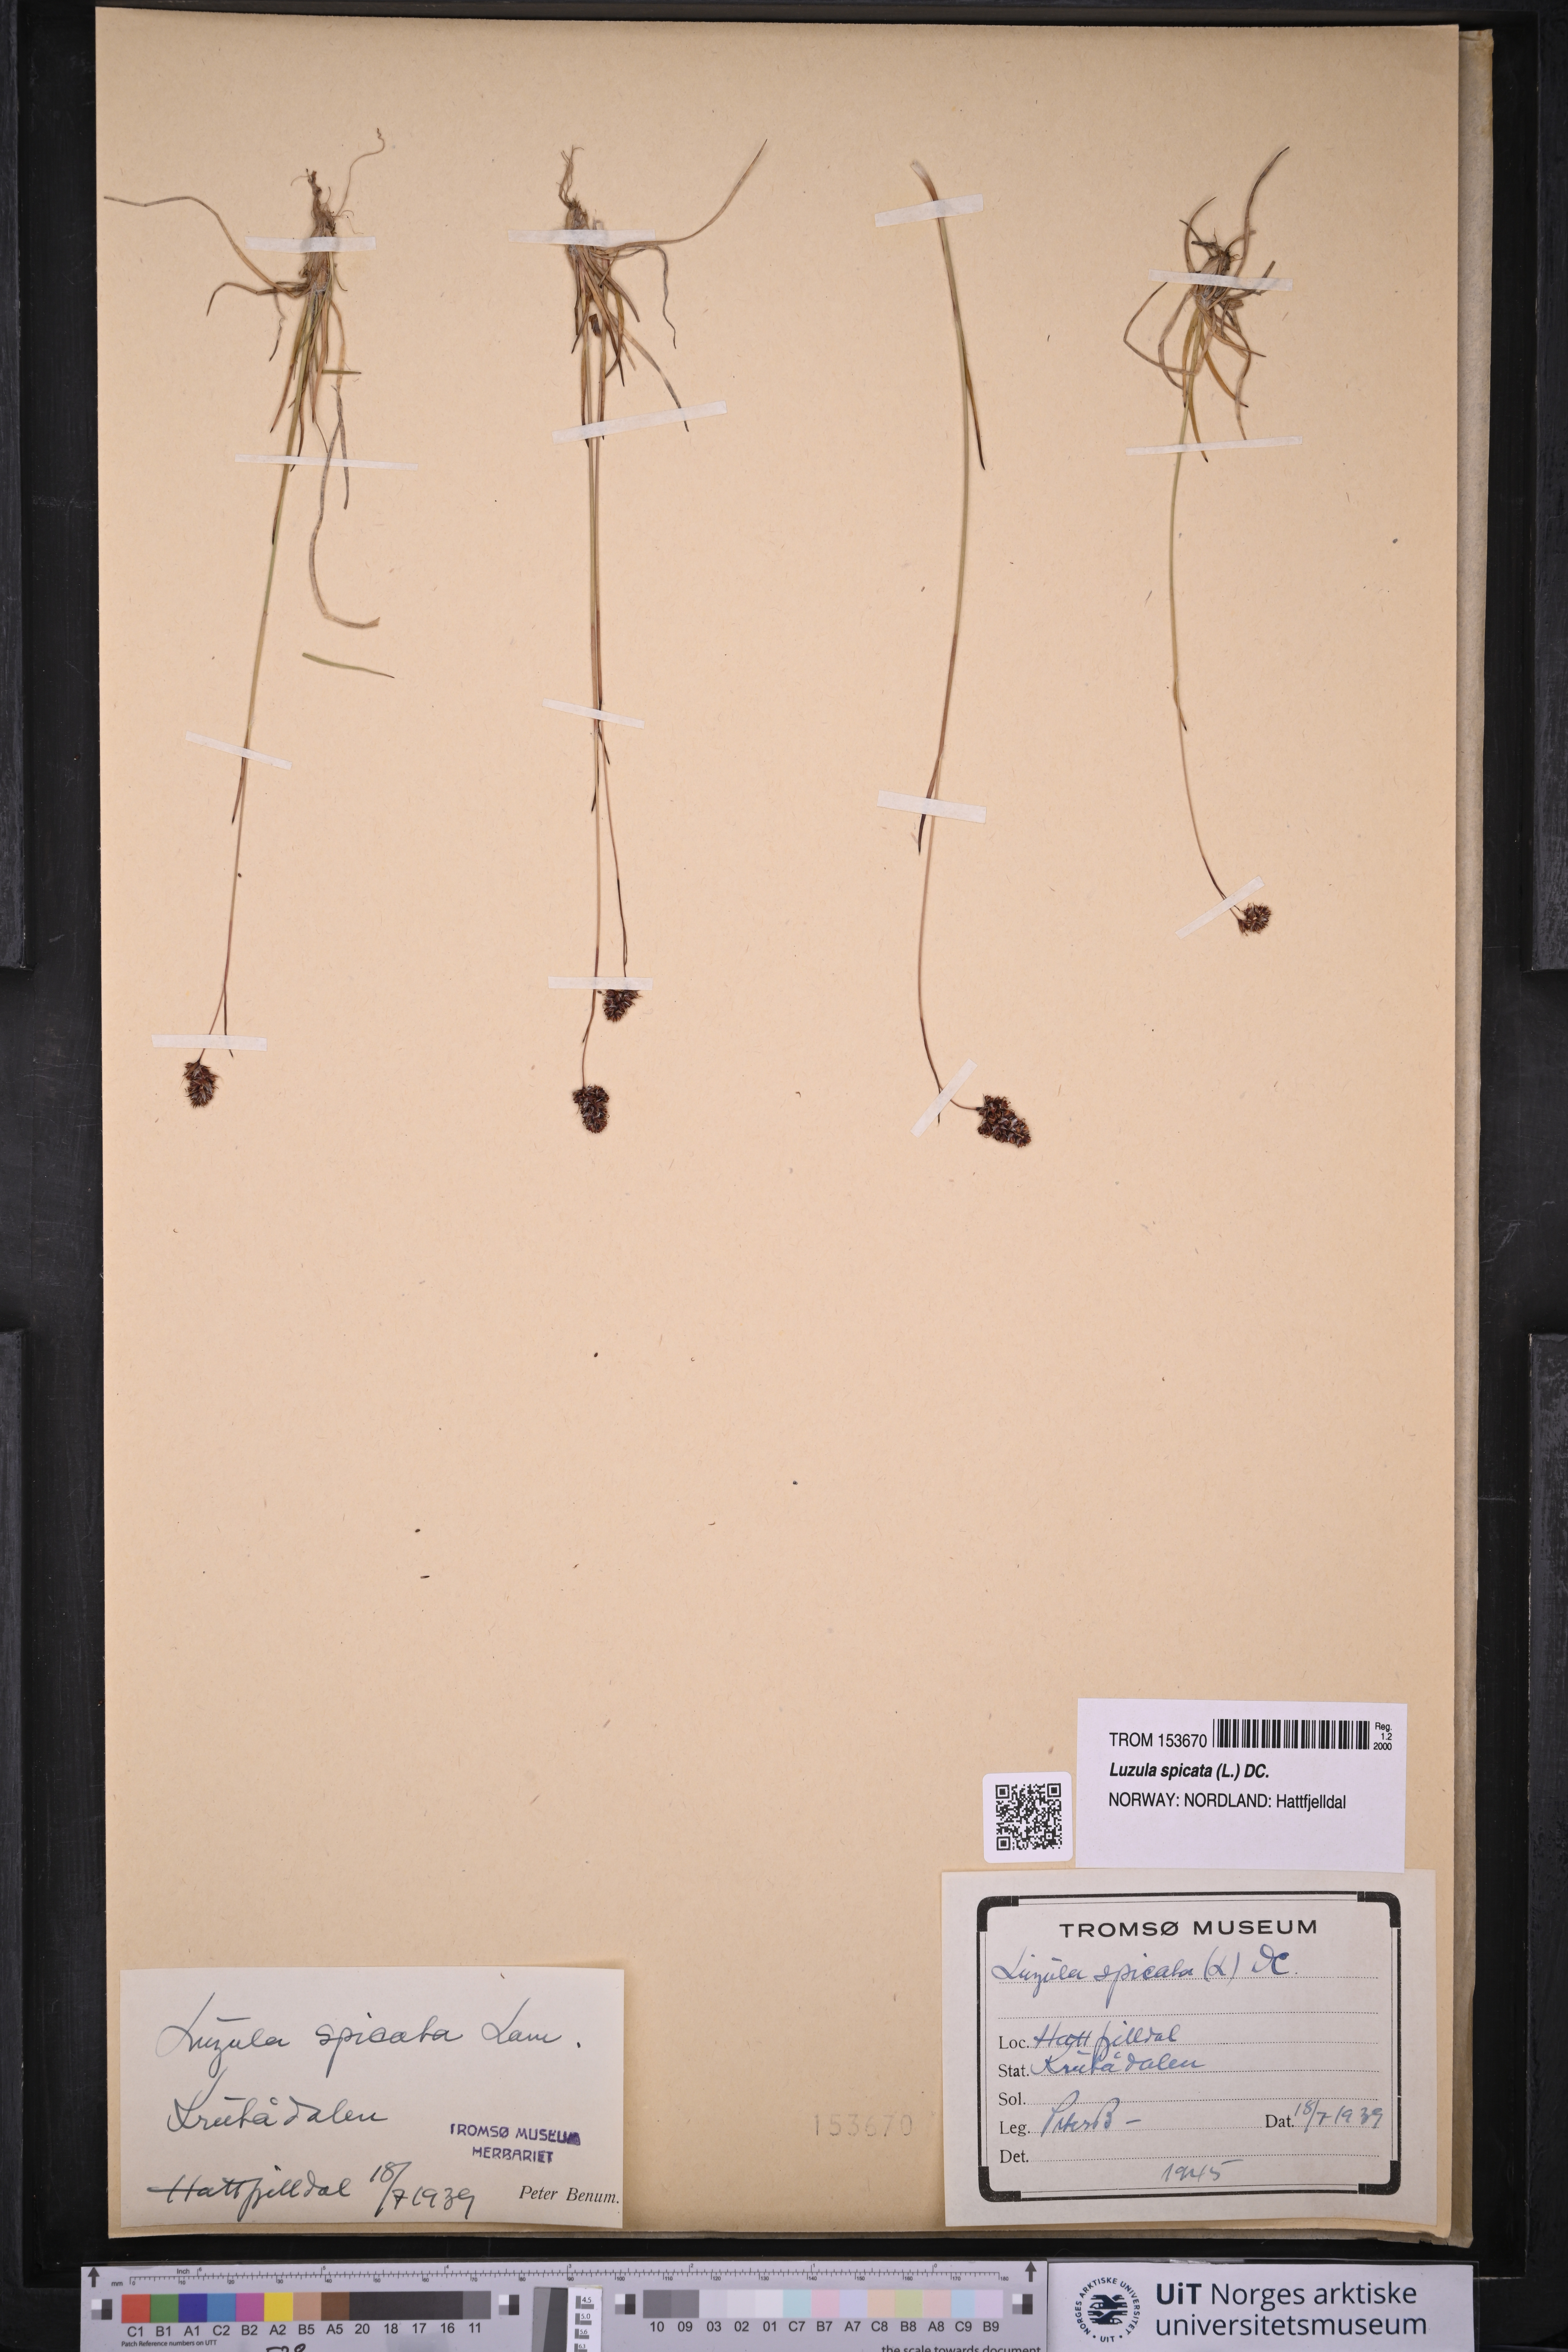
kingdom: Plantae
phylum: Tracheophyta
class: Liliopsida
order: Poales
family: Juncaceae
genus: Luzula
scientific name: Luzula spicata
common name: Spiked wood-rush
